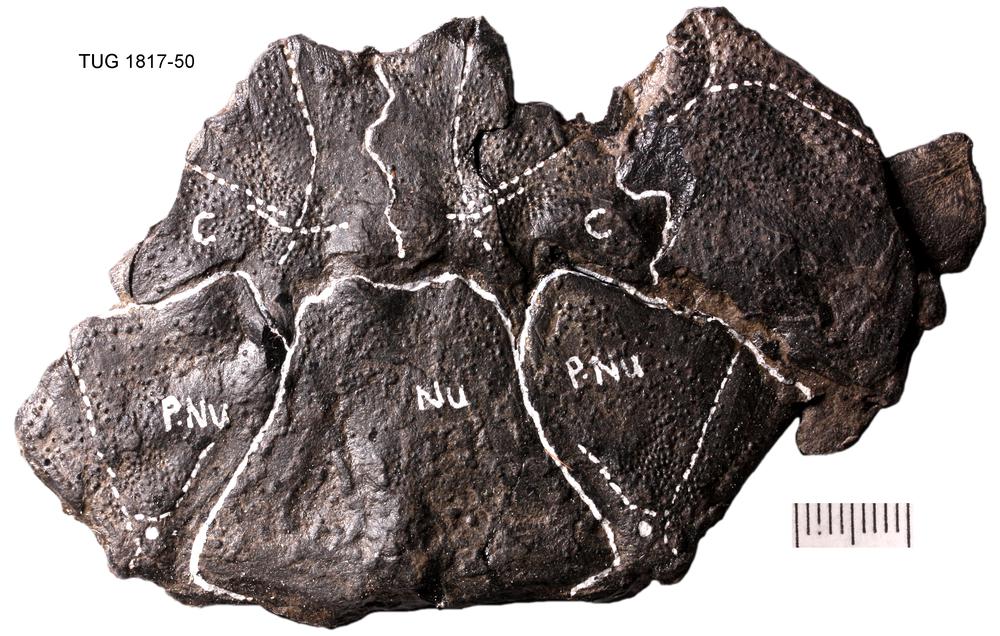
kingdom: Animalia
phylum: Chordata
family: Coccosteidae
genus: Coccosteus
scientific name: Coccosteus cuspidatus
